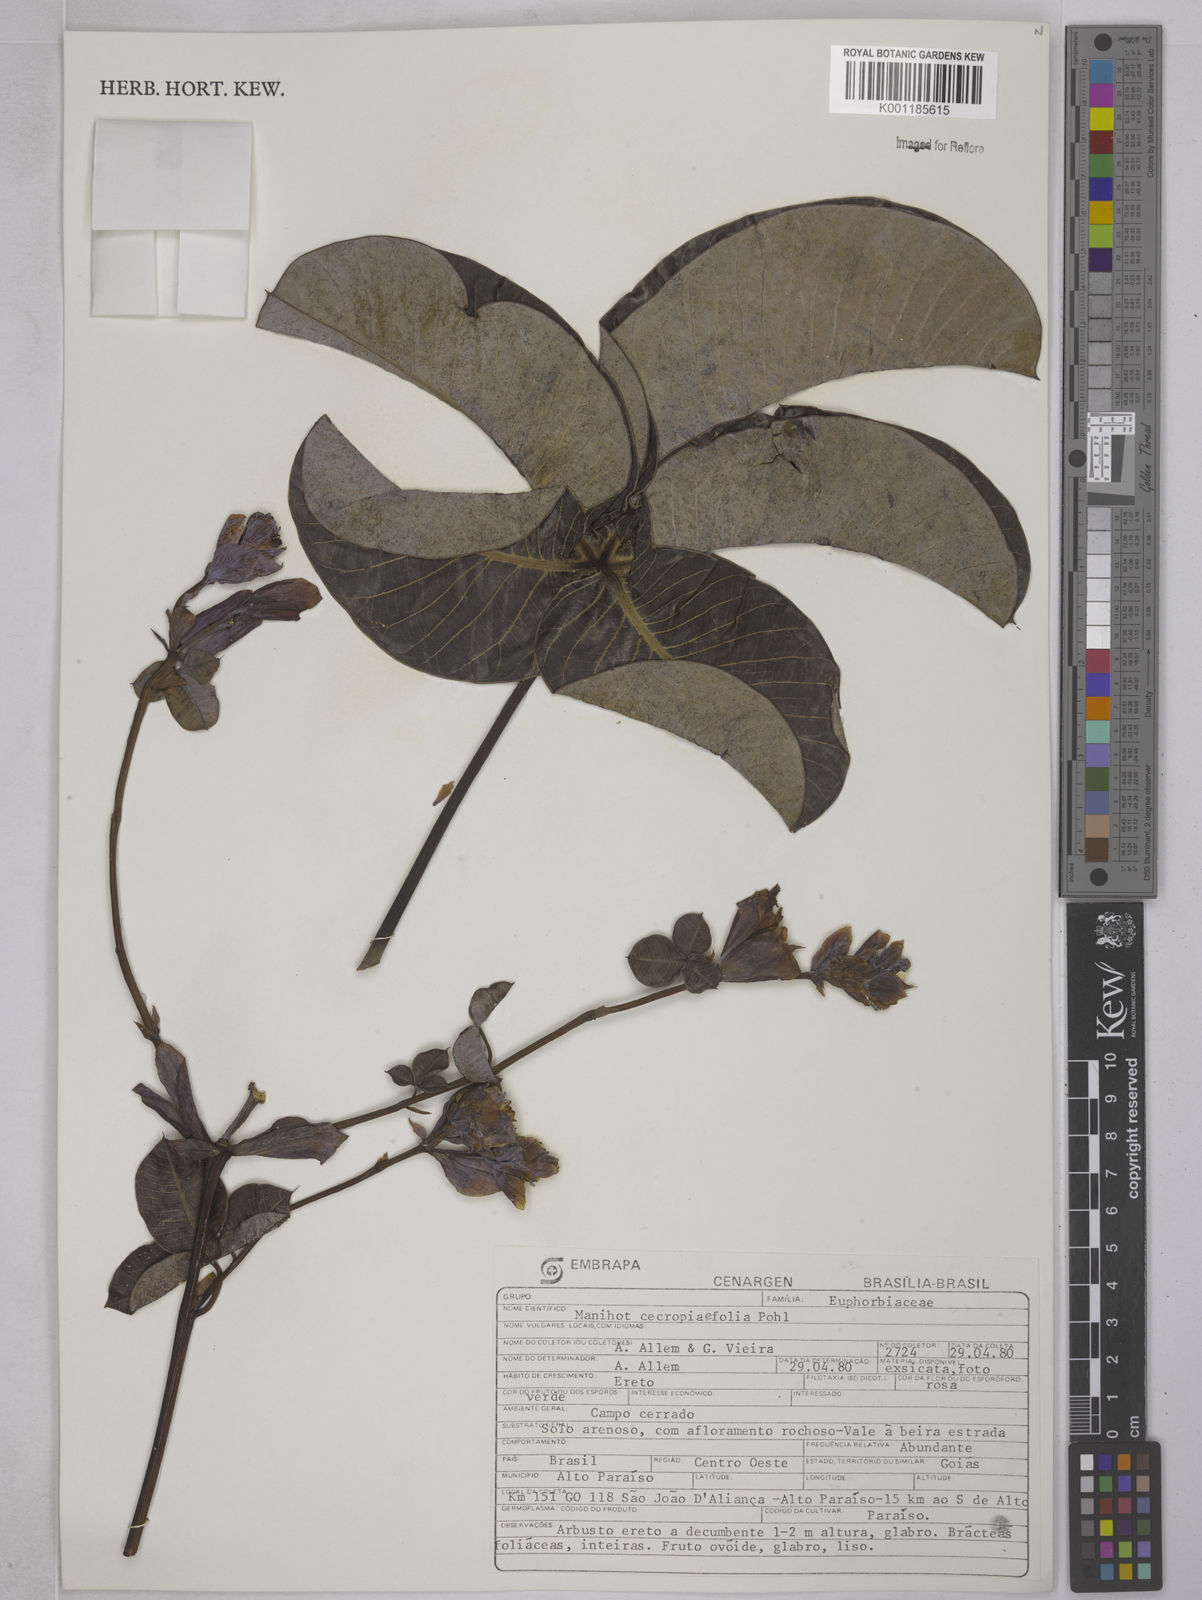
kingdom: Plantae
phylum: Tracheophyta
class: Magnoliopsida
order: Malpighiales
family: Euphorbiaceae
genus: Manihot
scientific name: Manihot cecropiifolia
